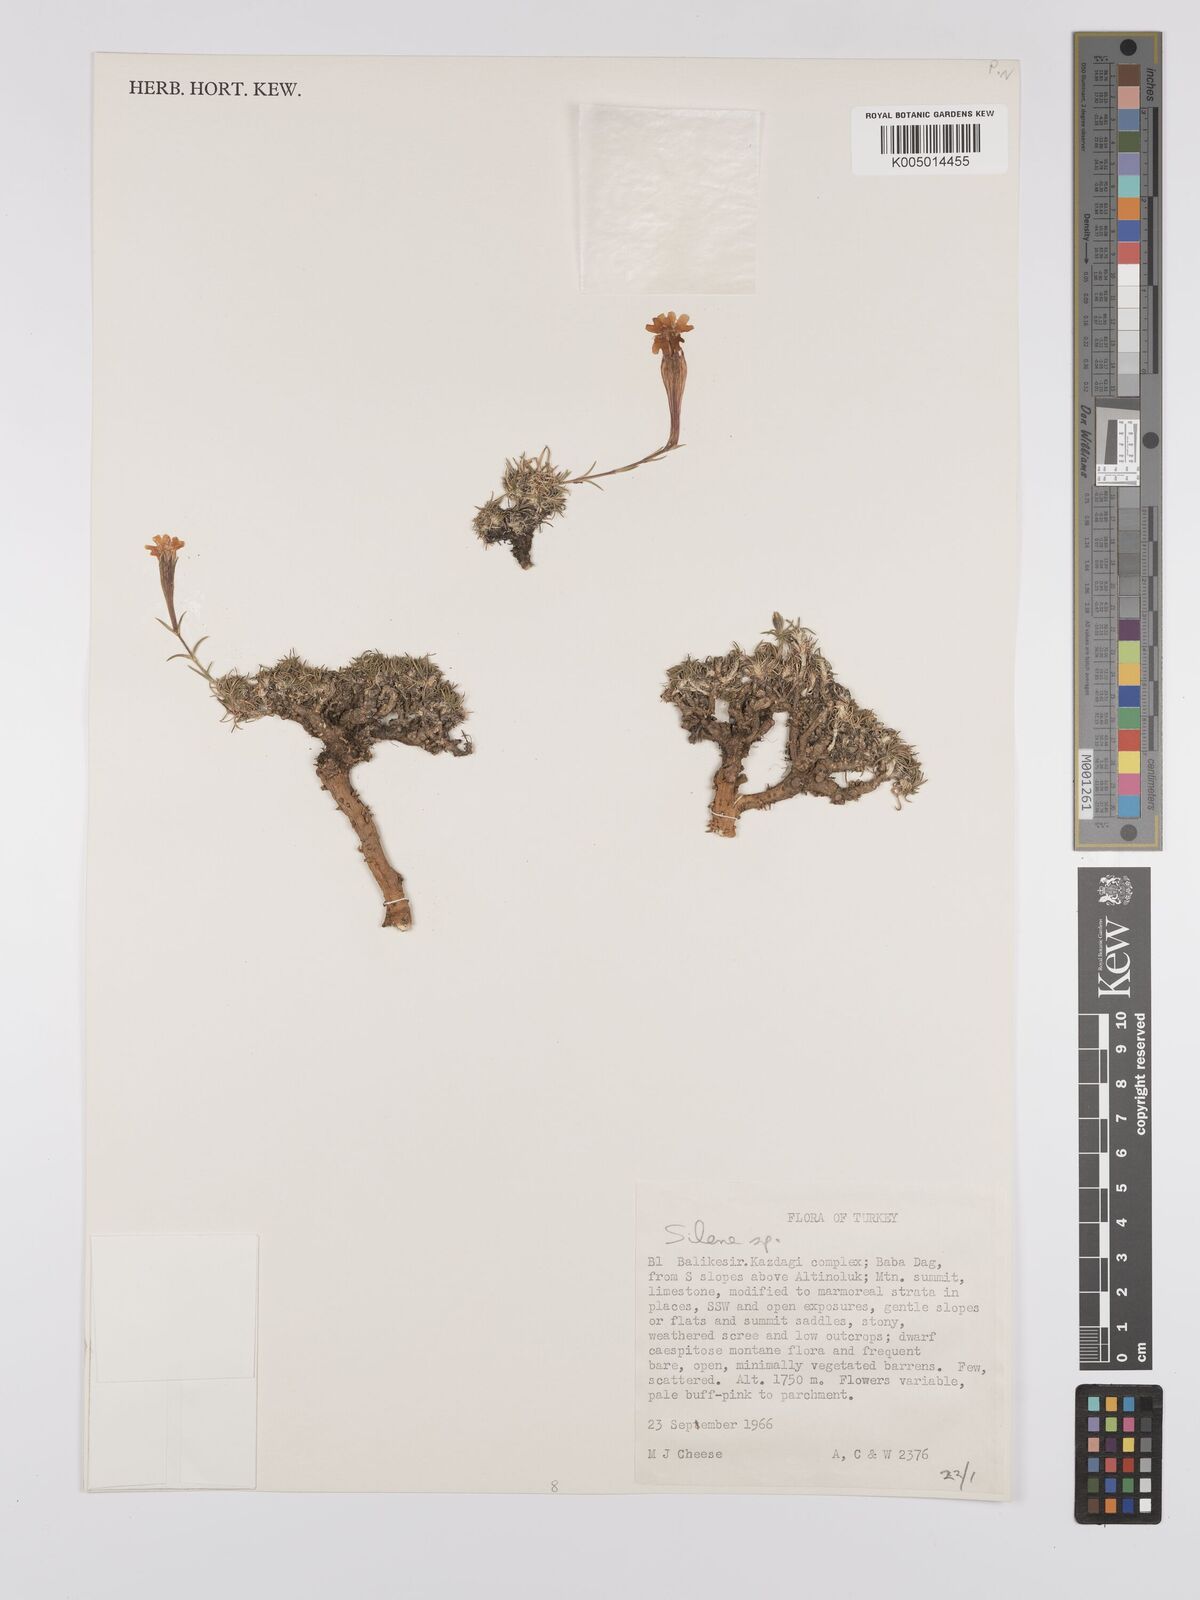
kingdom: Plantae
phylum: Tracheophyta
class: Magnoliopsida
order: Caryophyllales
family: Caryophyllaceae
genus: Silene
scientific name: Silene
